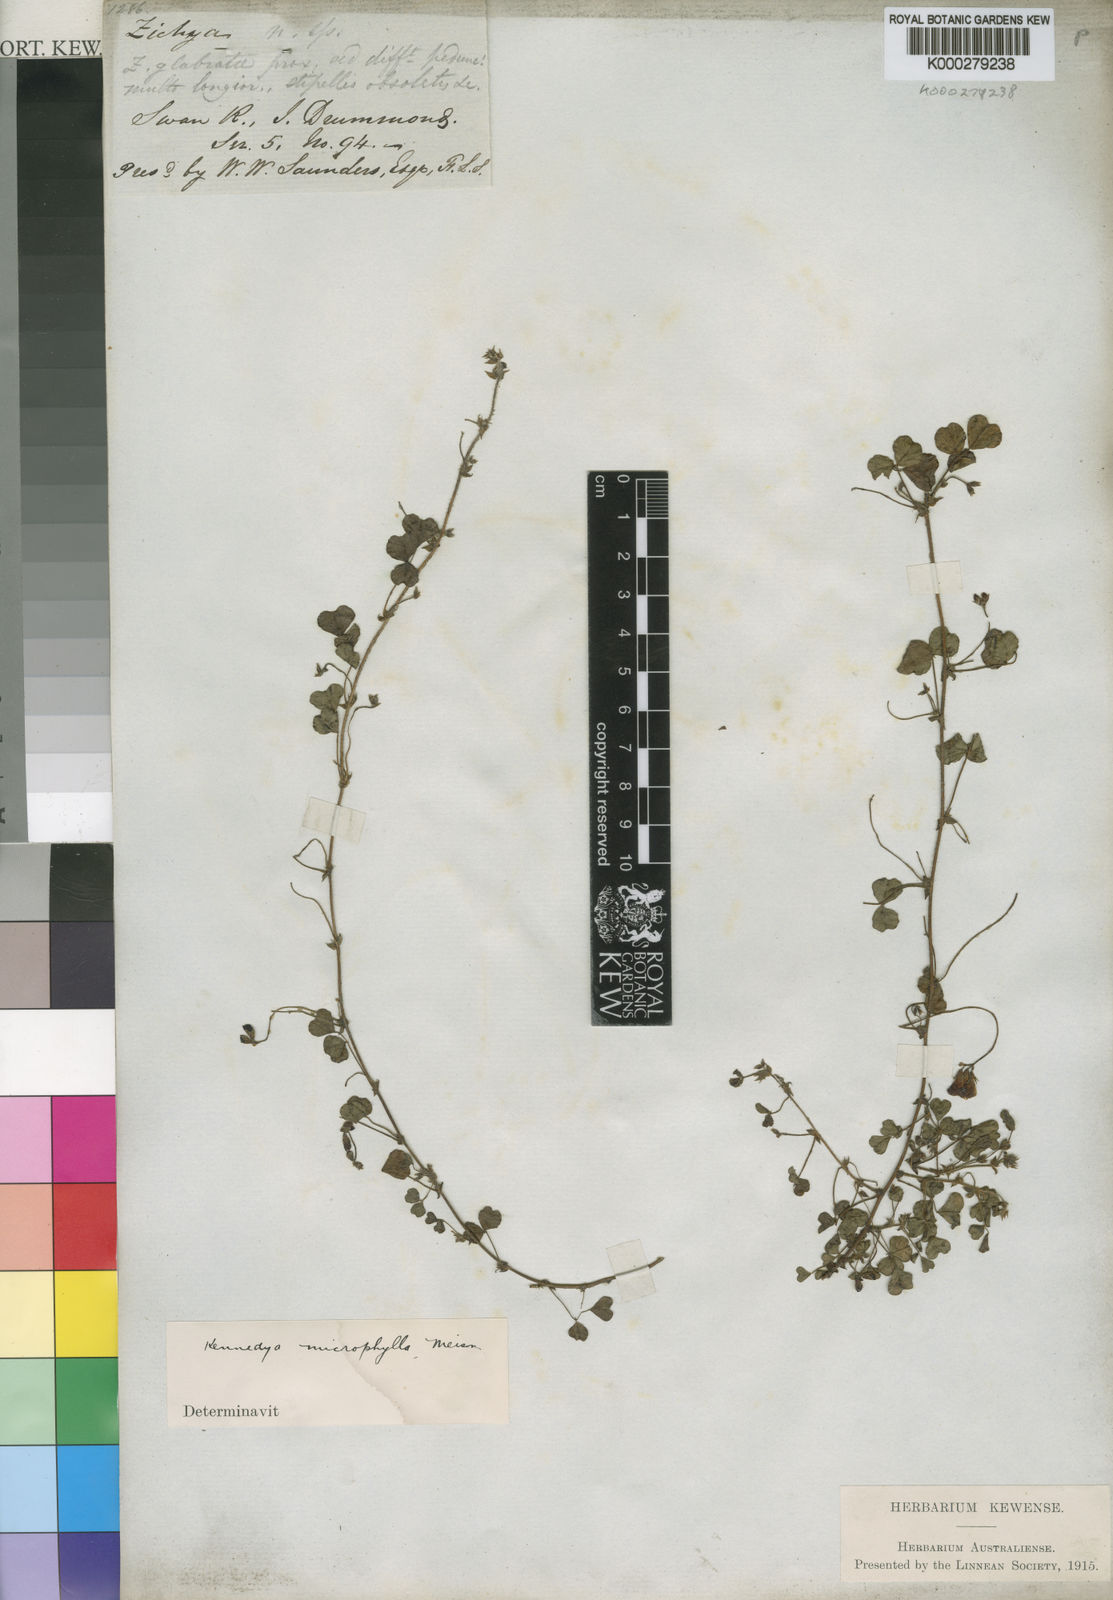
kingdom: Plantae
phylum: Tracheophyta
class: Magnoliopsida
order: Fabales
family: Fabaceae
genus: Kennedia
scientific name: Kennedia microphylla
